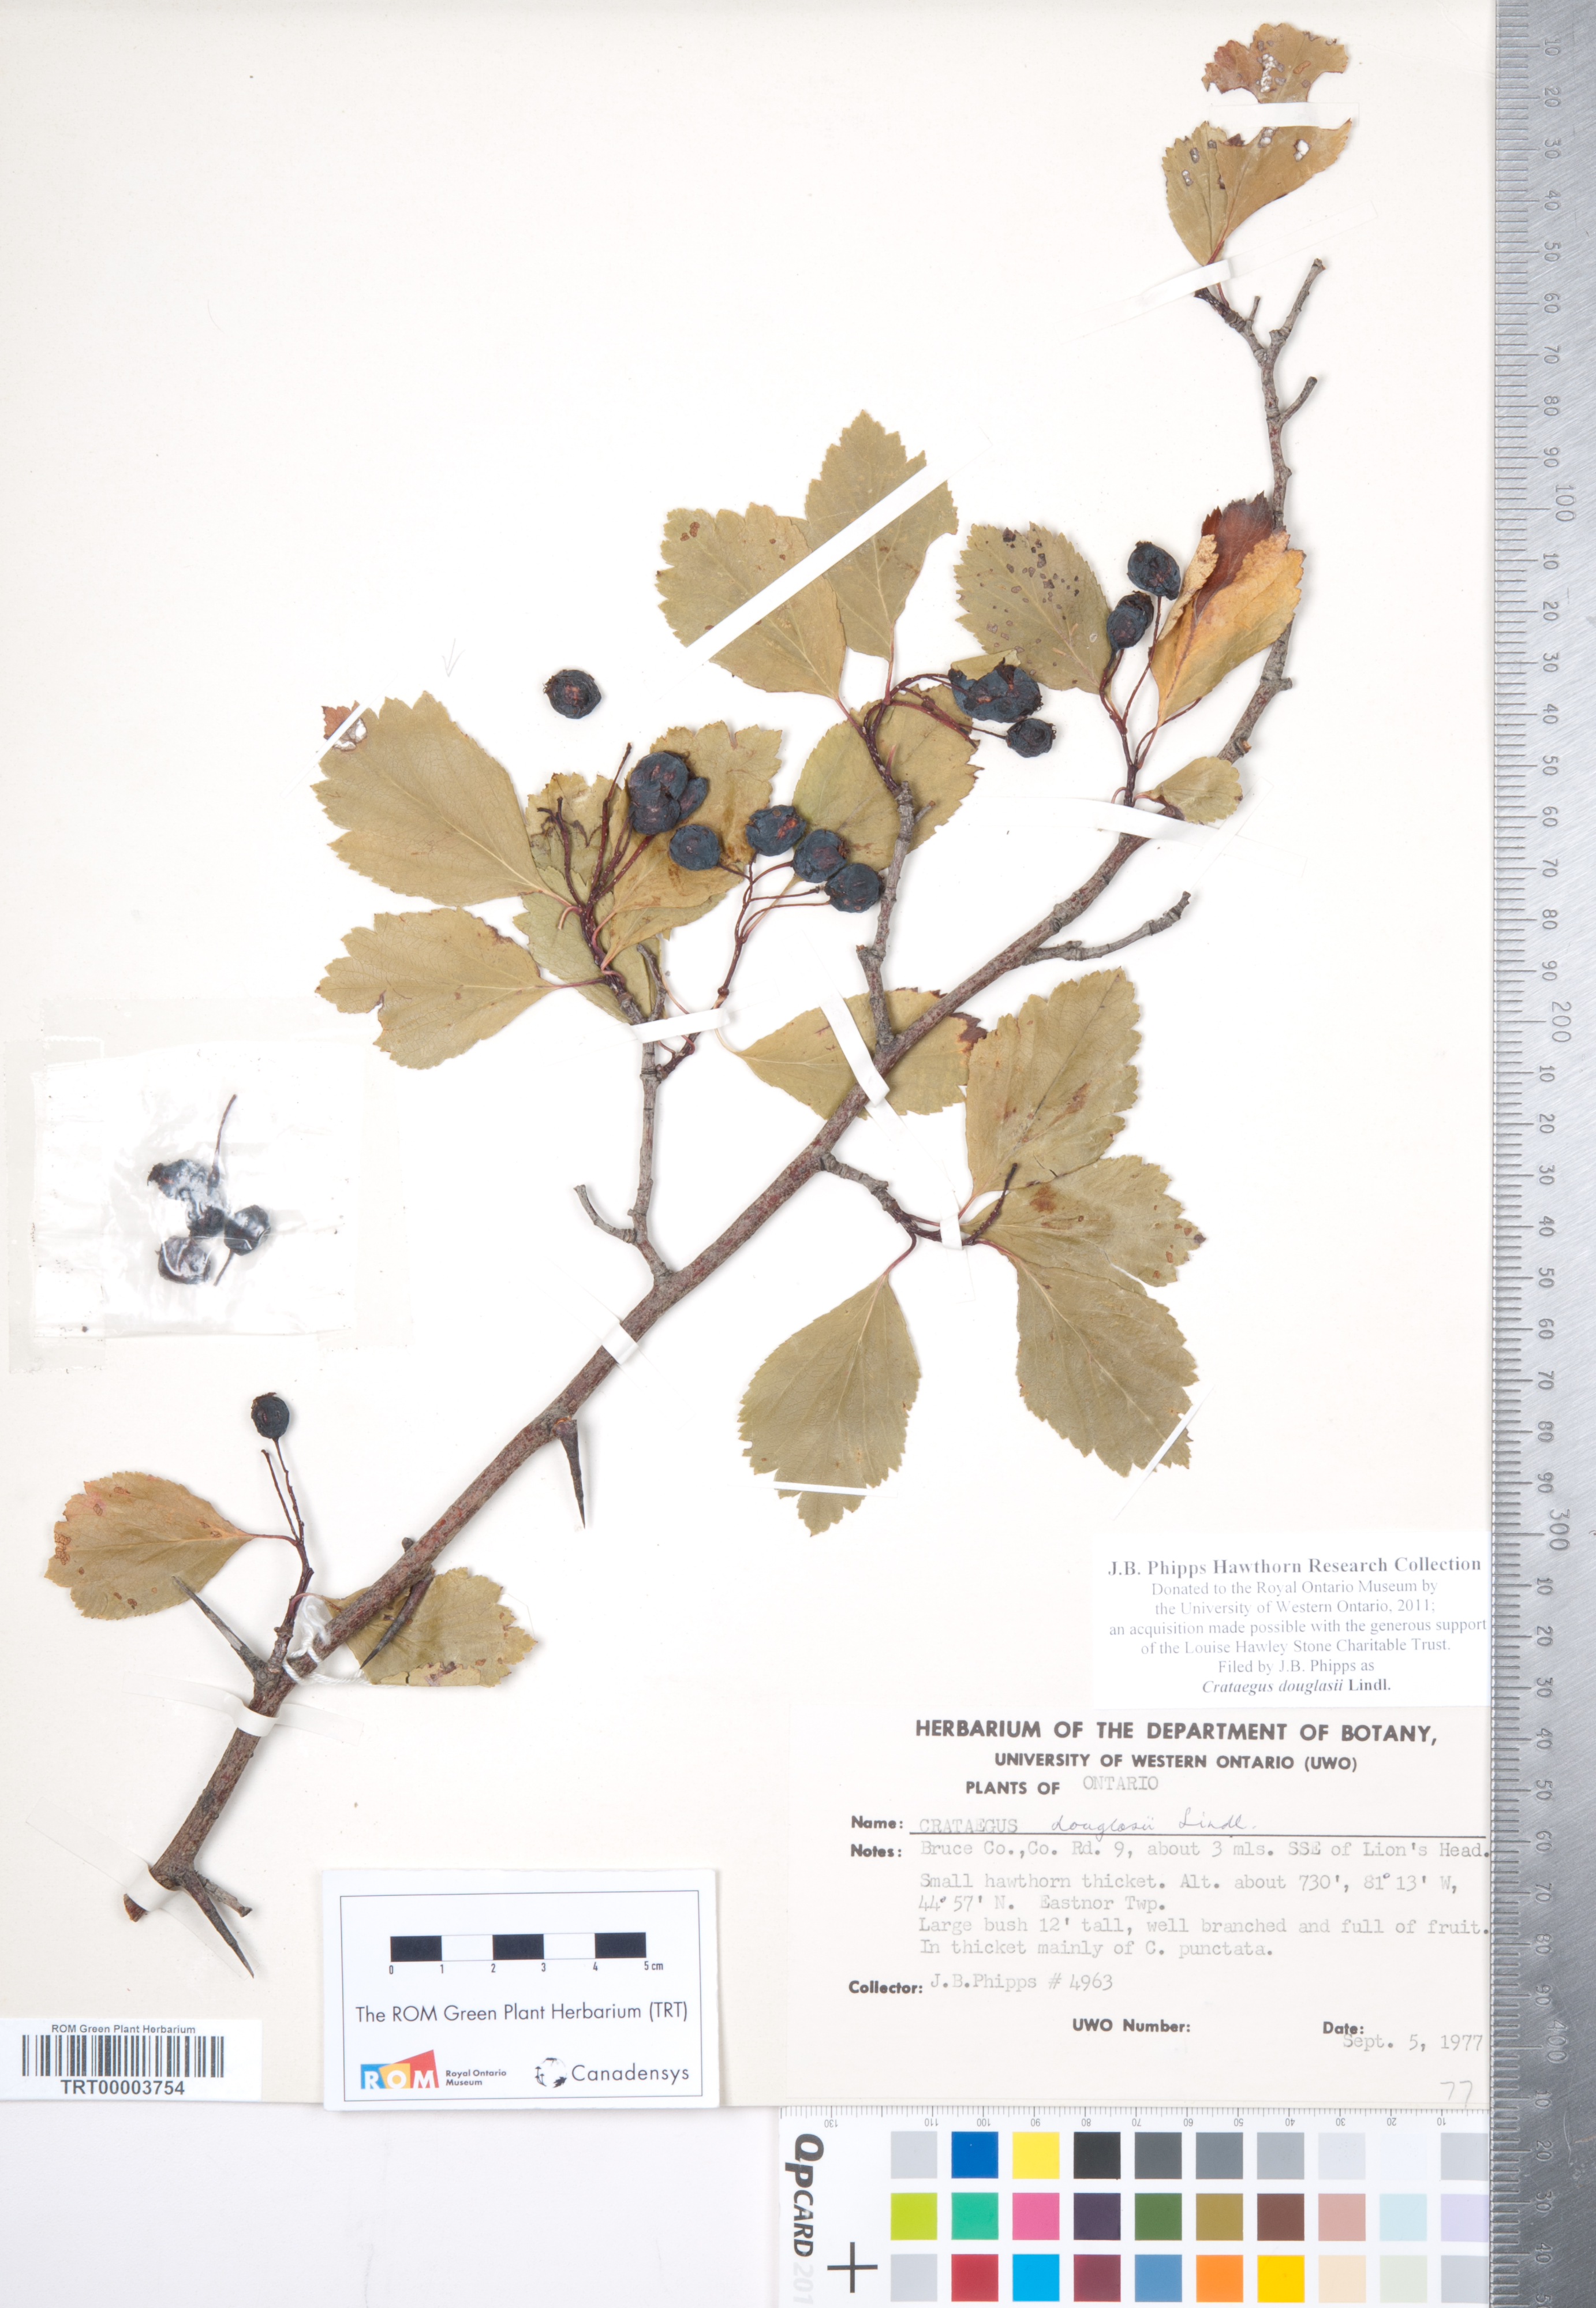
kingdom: Plantae
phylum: Tracheophyta
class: Magnoliopsida
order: Rosales
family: Rosaceae
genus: Crataegus
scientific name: Crataegus douglasii
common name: Black hawthorn
